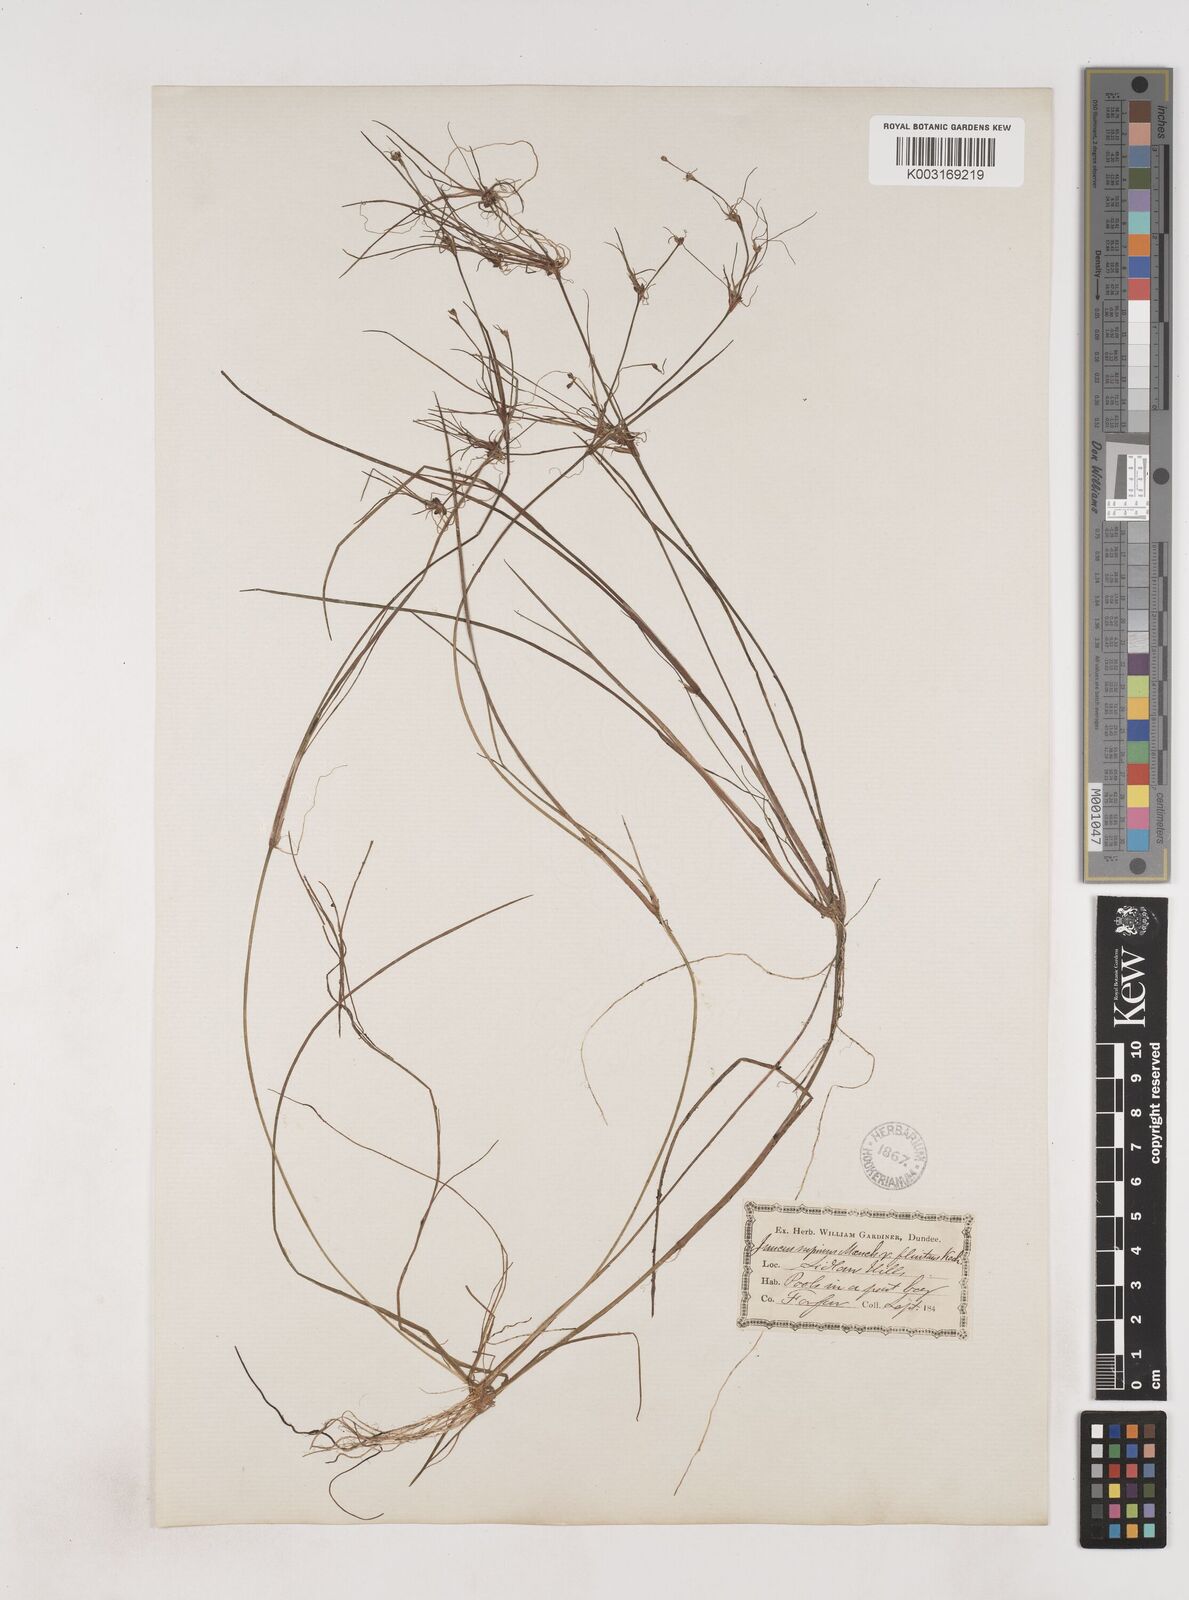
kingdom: Plantae
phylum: Tracheophyta
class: Liliopsida
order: Poales
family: Juncaceae
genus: Juncus
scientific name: Juncus bulbosus
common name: Bulbous rush
